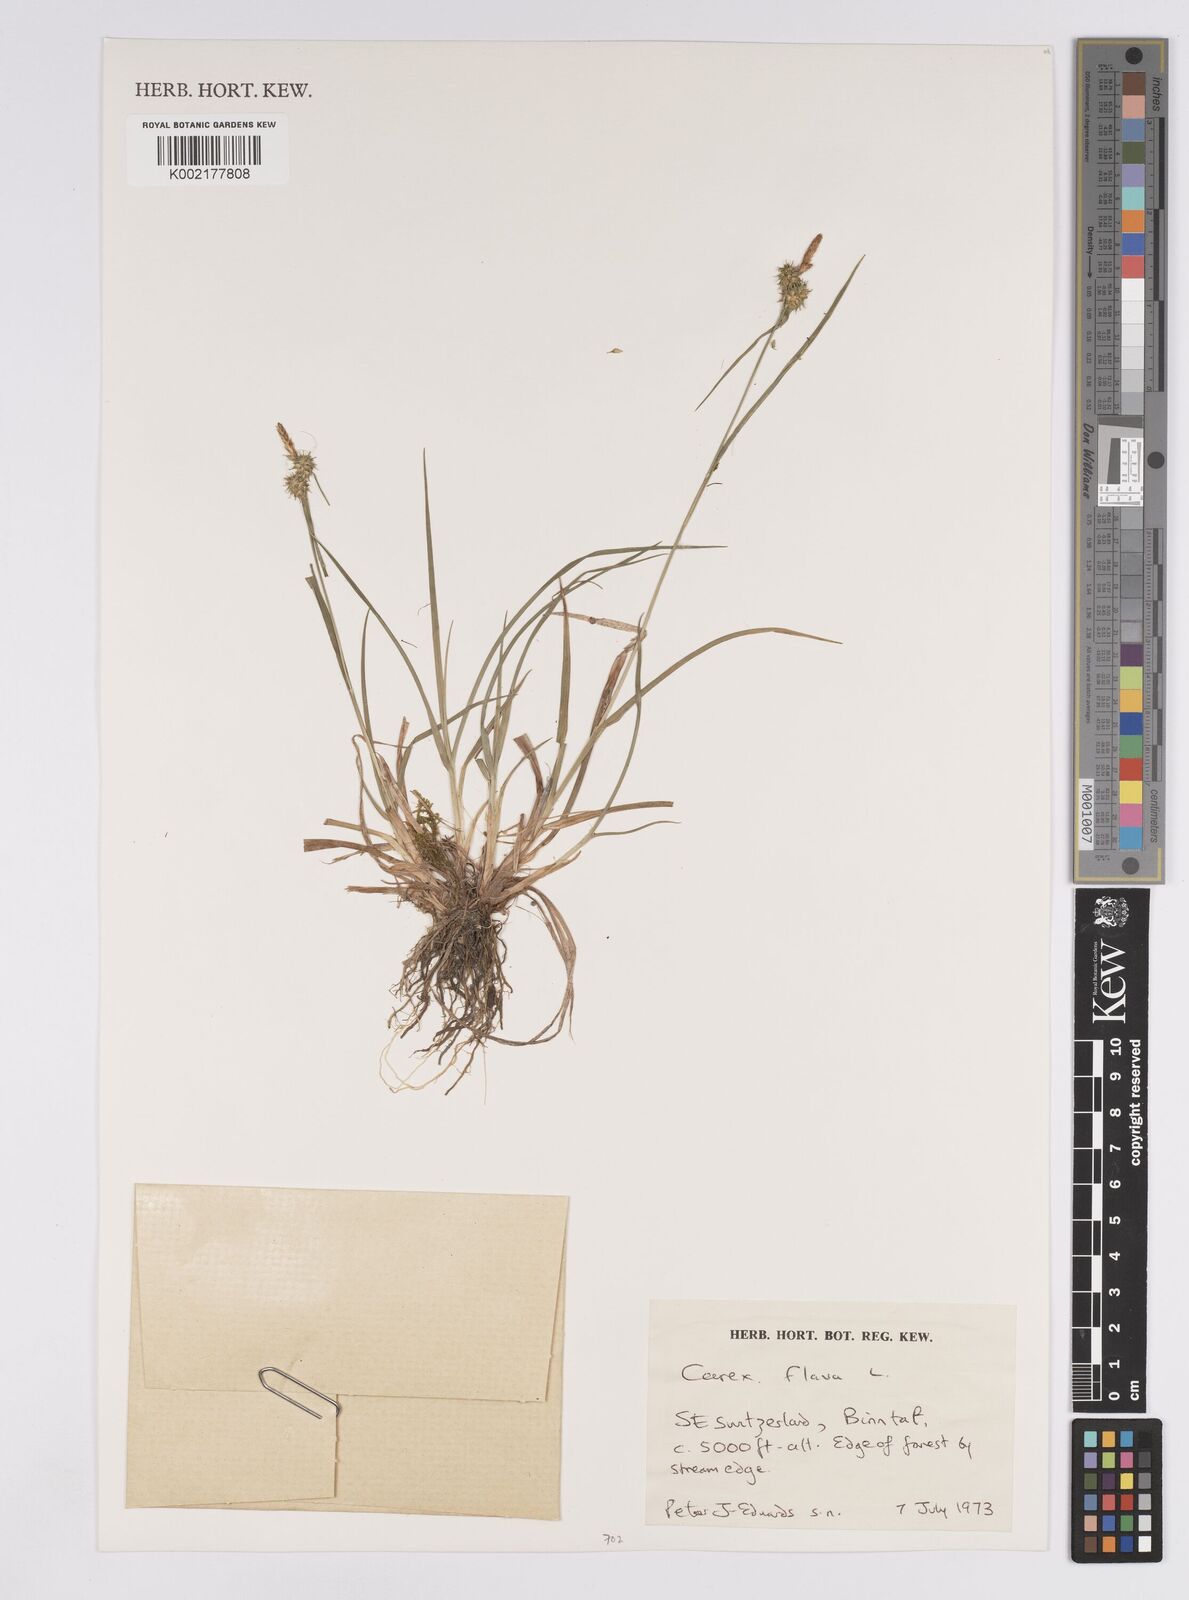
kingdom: Plantae
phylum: Tracheophyta
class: Liliopsida
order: Poales
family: Cyperaceae
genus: Carex
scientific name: Carex flava
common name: Large yellow-sedge
